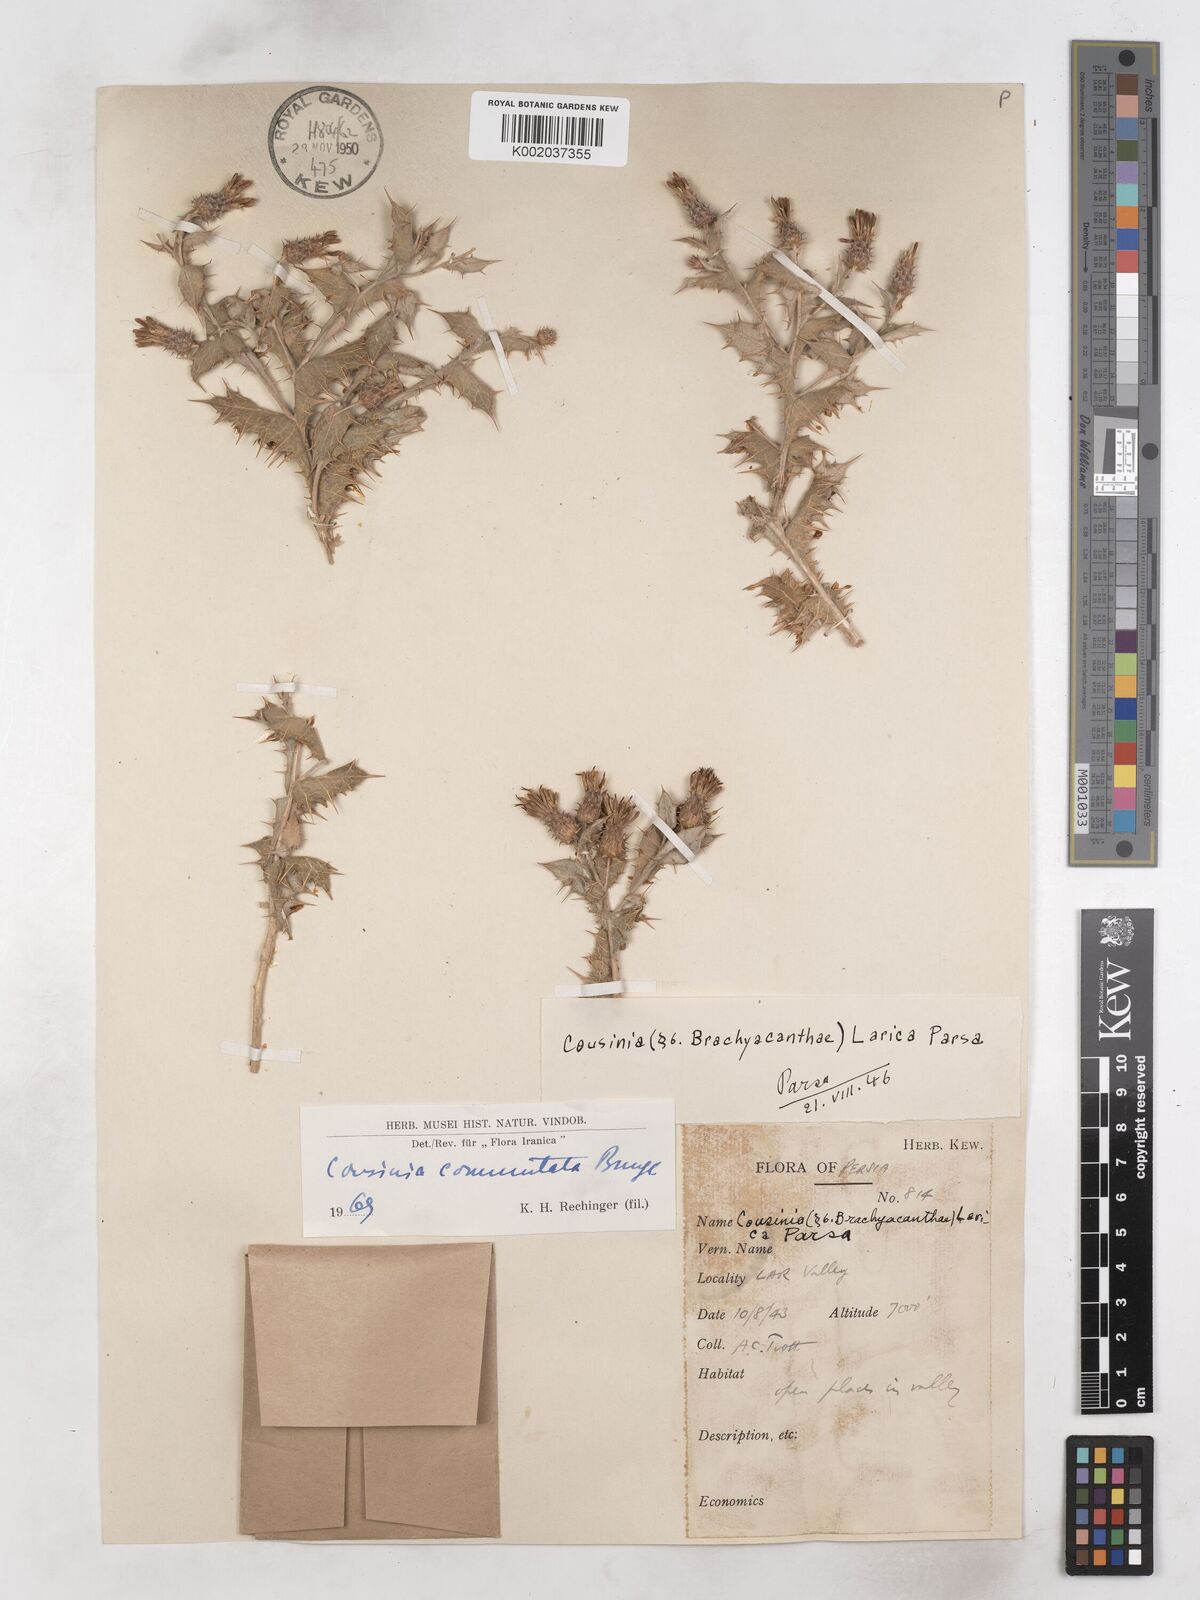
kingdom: Plantae
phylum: Tracheophyta
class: Magnoliopsida
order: Asterales
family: Asteraceae
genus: Cousinia
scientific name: Cousinia commutata
